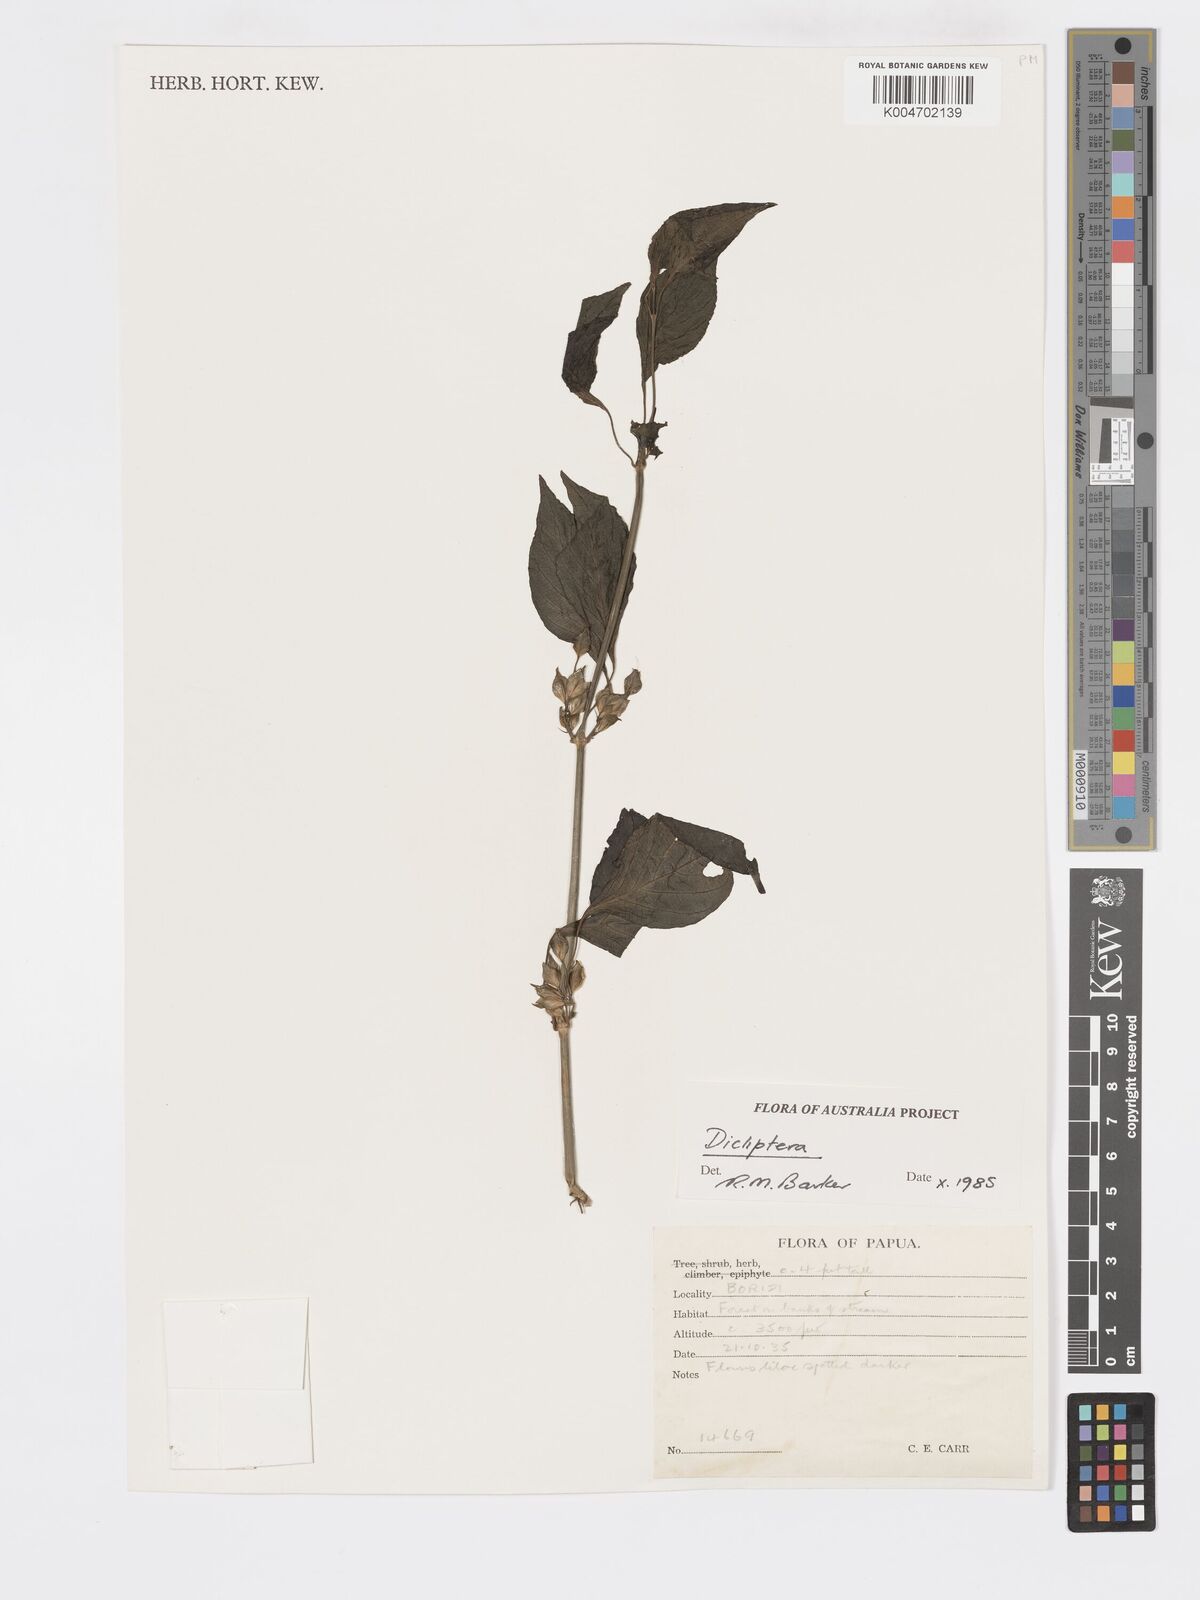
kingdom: Plantae
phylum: Tracheophyta
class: Magnoliopsida
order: Lamiales
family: Acanthaceae
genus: Dicliptera
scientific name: Dicliptera
